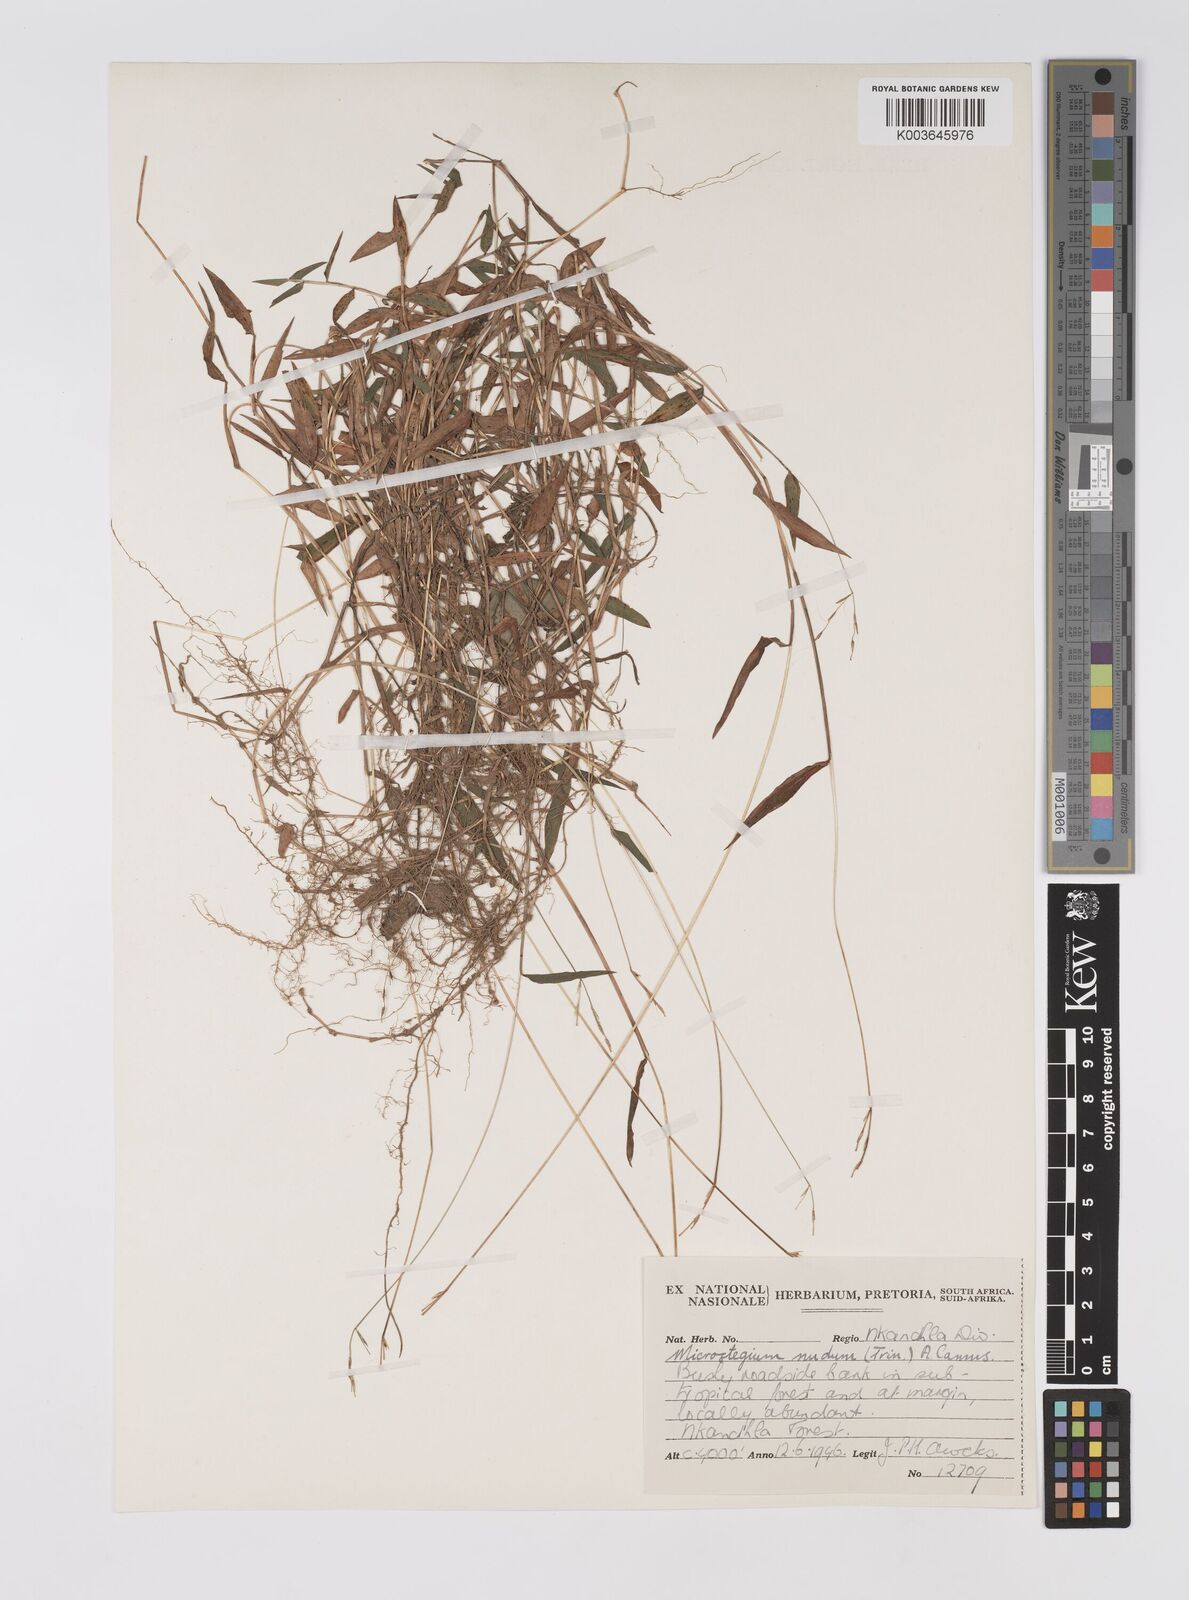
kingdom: Plantae
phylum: Tracheophyta
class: Liliopsida
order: Poales
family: Poaceae
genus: Microstegium
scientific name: Microstegium nudum
